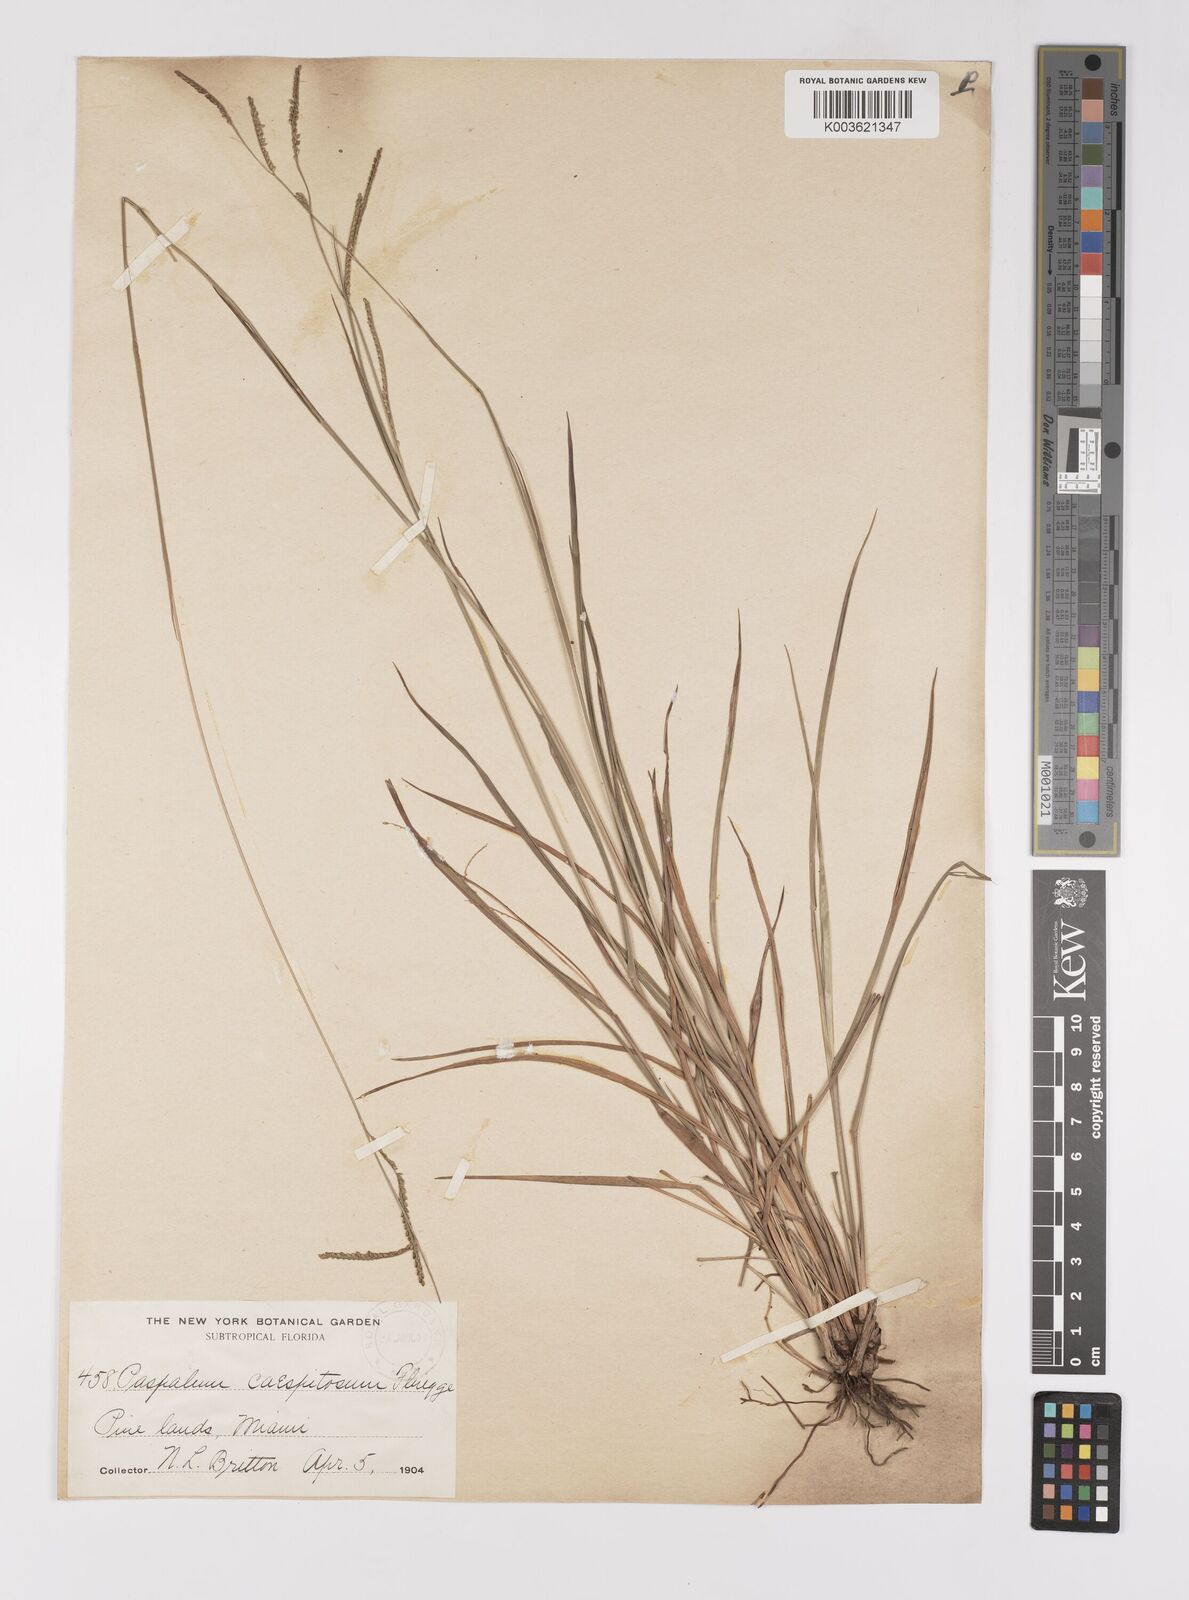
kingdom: Plantae
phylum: Tracheophyta
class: Liliopsida
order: Poales
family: Poaceae
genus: Paspalum
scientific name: Paspalum caespitosum
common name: Blue crowngrass
